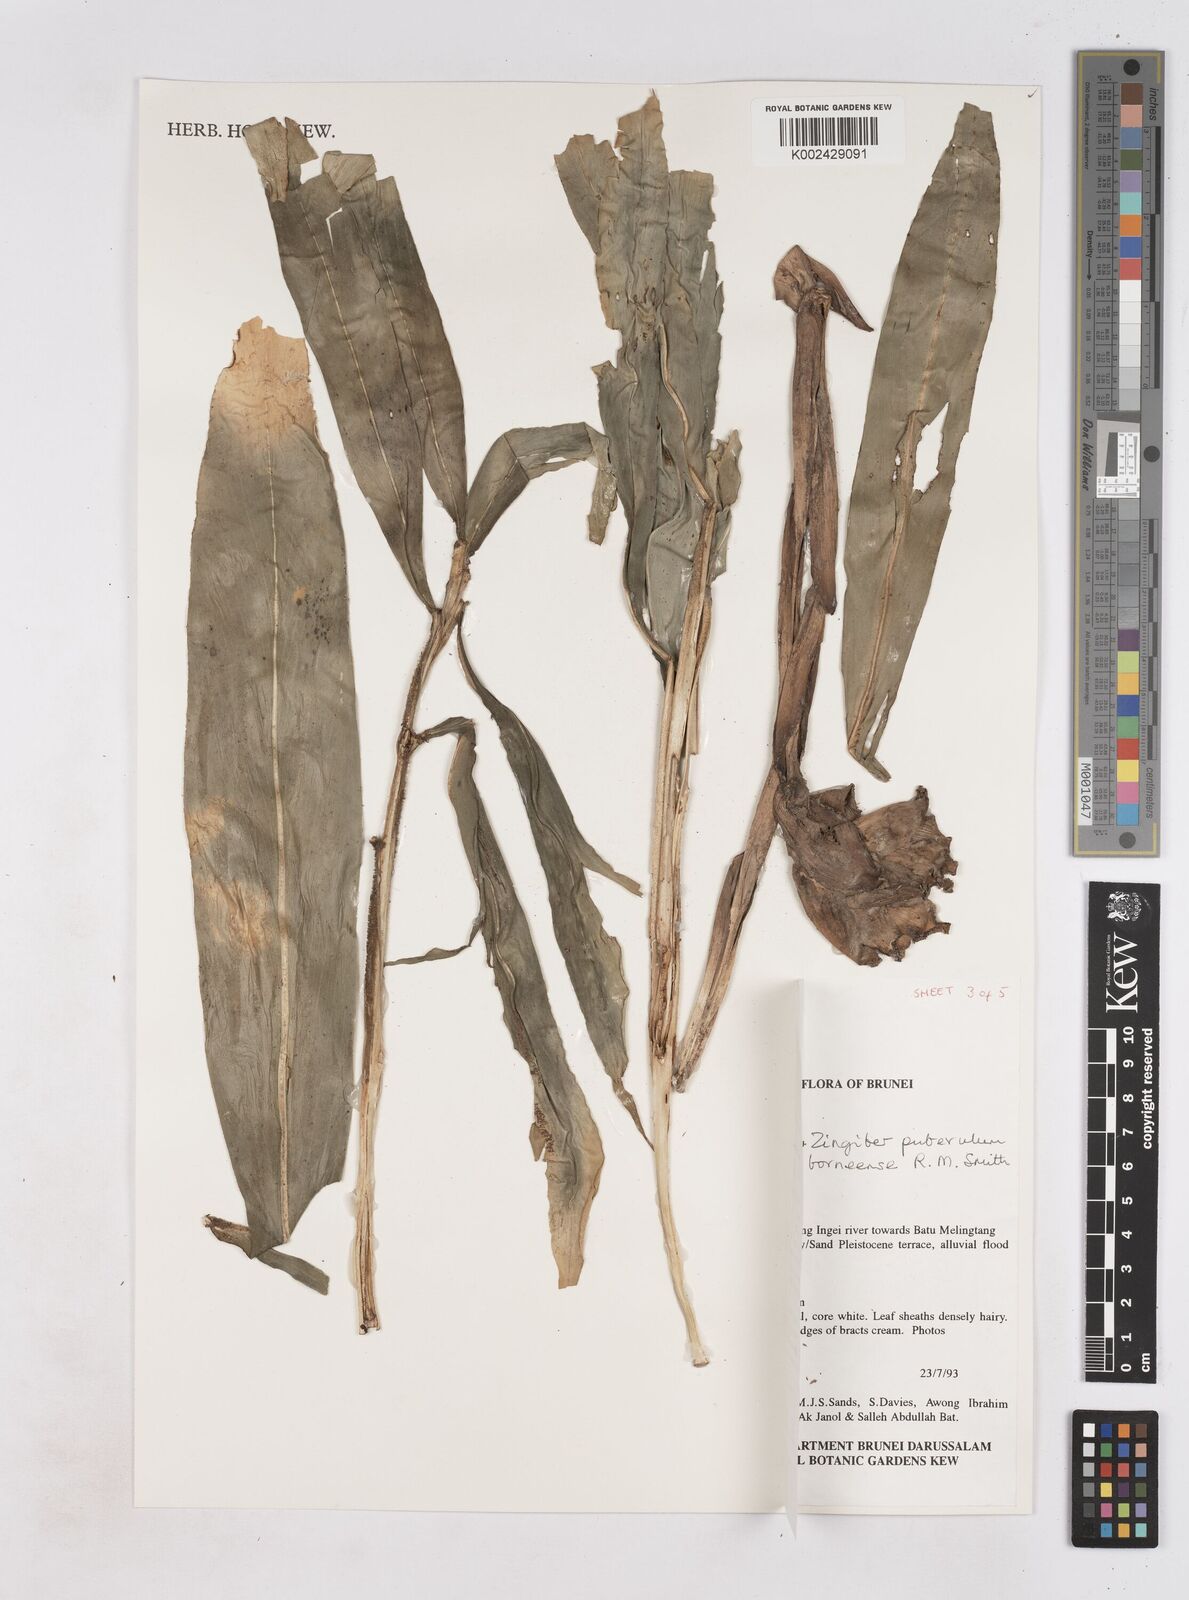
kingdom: Plantae
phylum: Tracheophyta
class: Liliopsida
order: Zingiberales
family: Zingiberaceae
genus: Zingiber
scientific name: Zingiber puberulum
